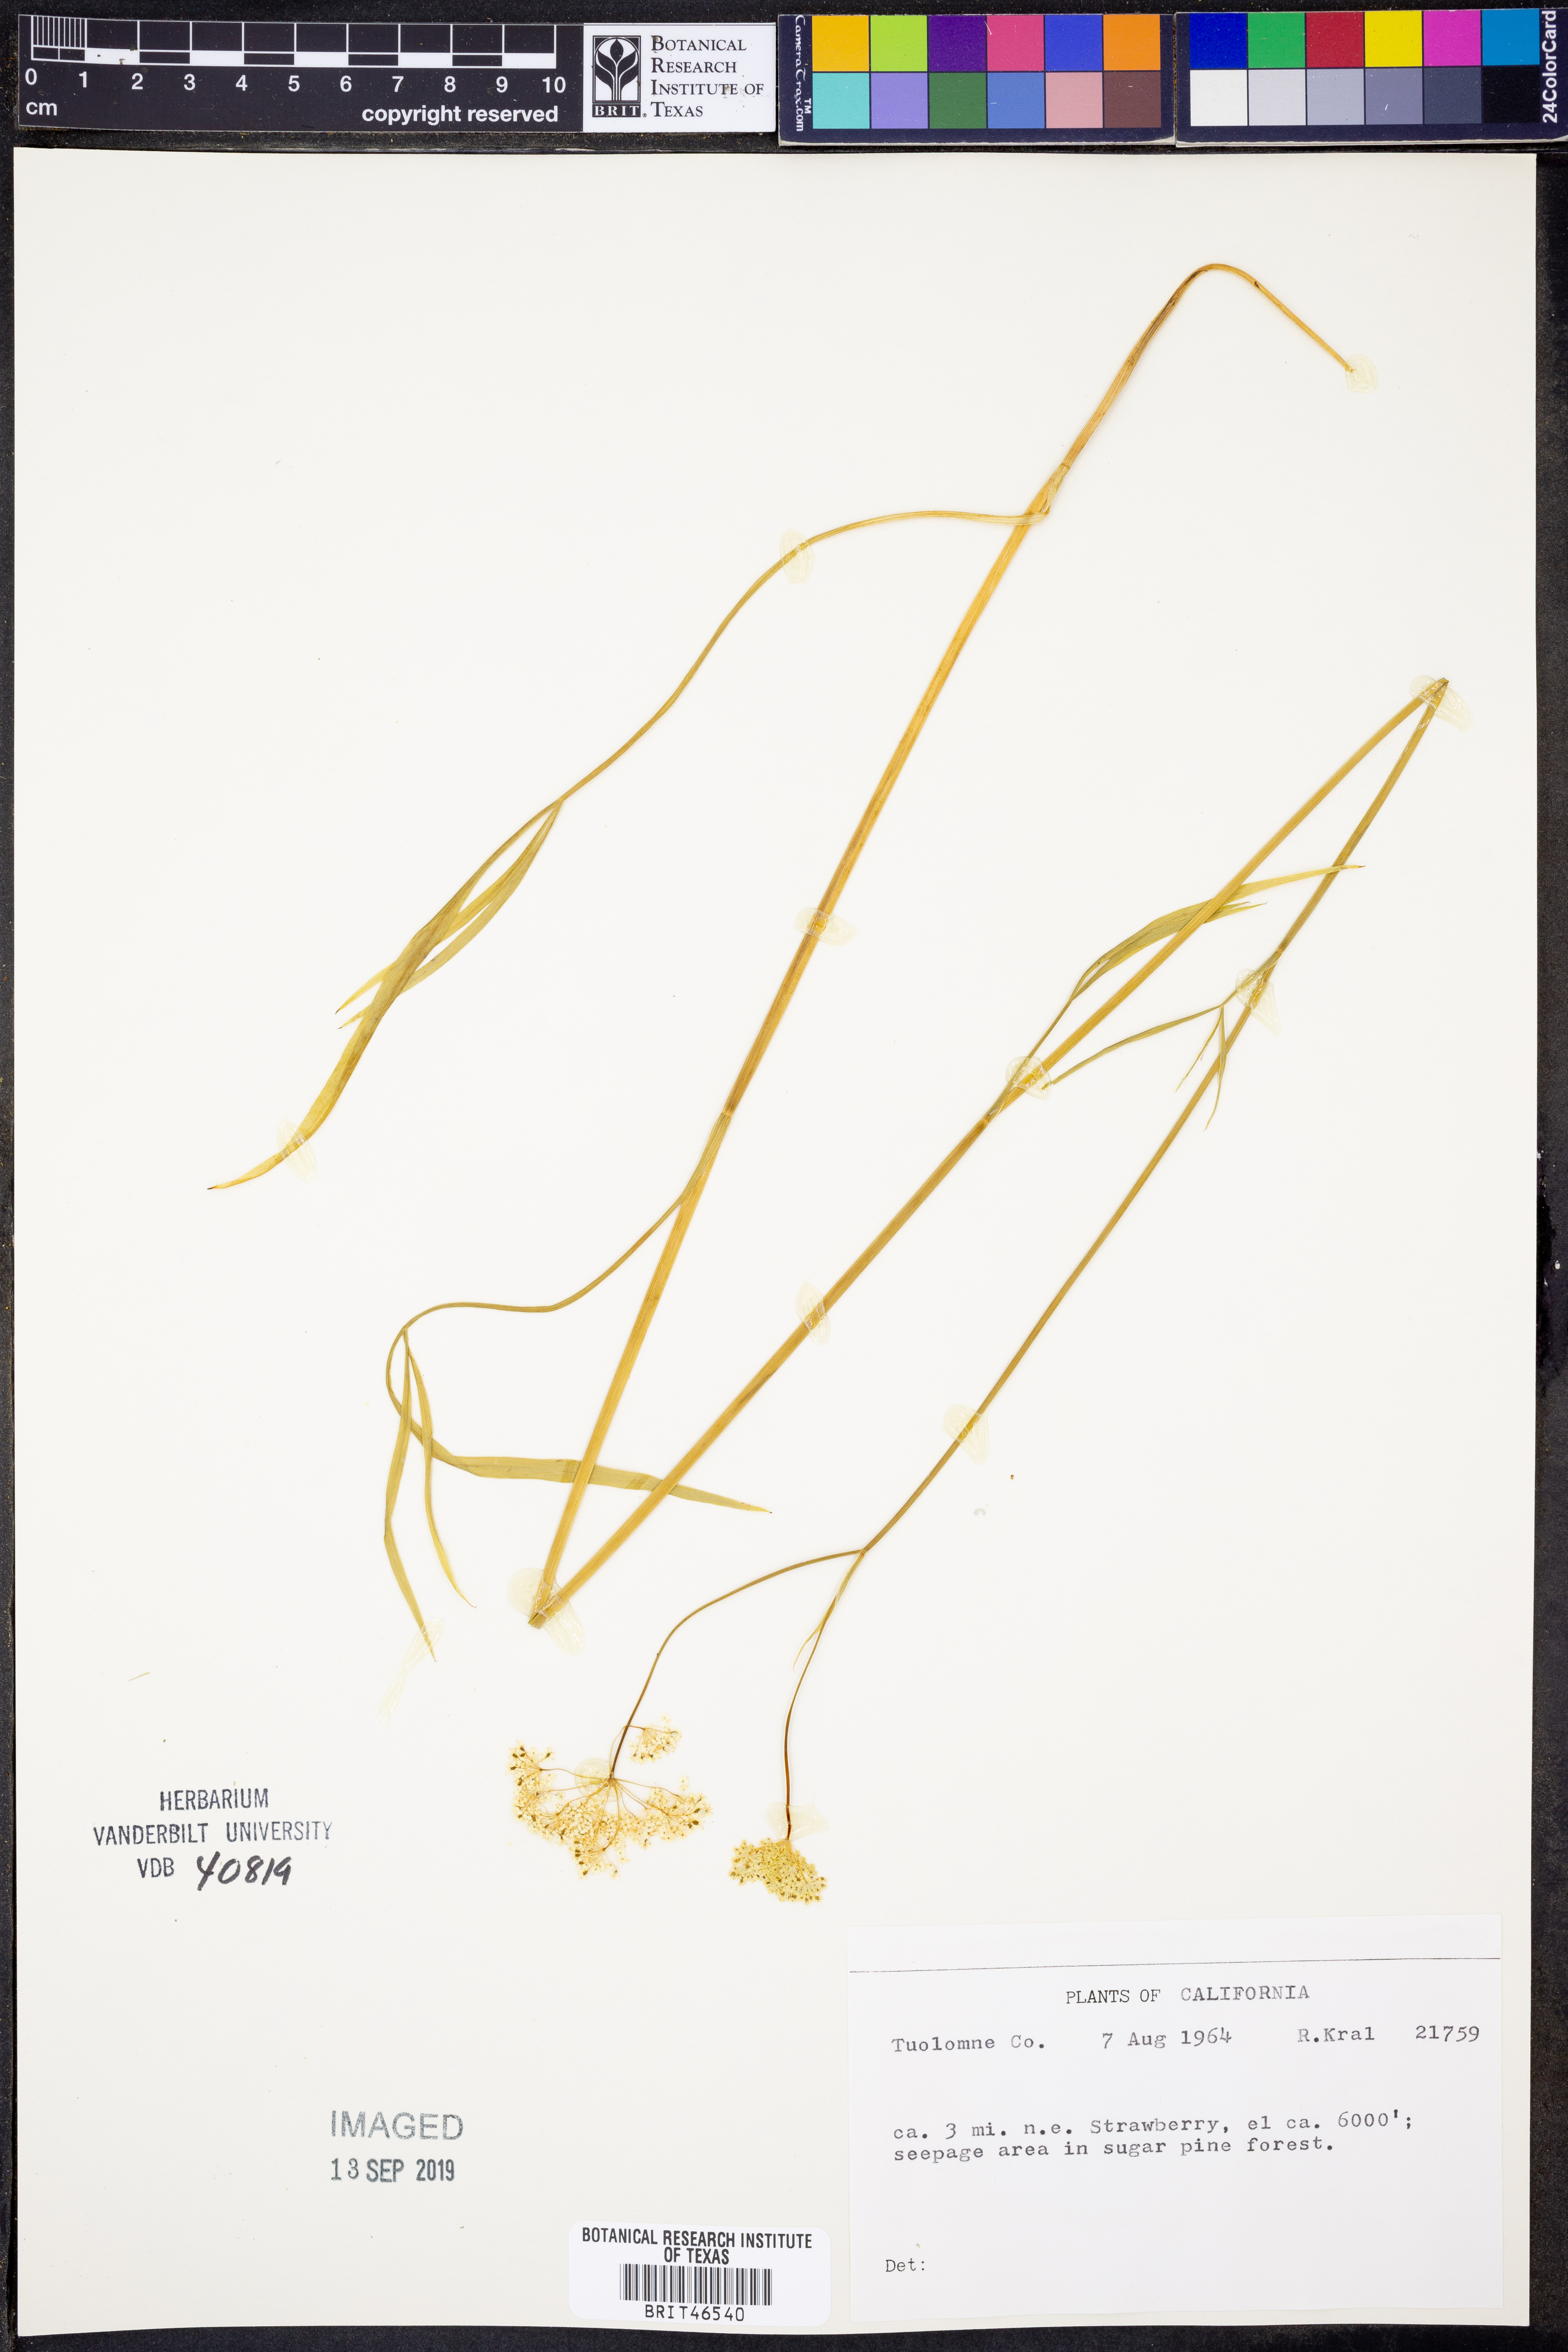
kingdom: Plantae
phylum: Tracheophyta
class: Magnoliopsida
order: Apiales
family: Apiaceae
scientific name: Apiaceae
